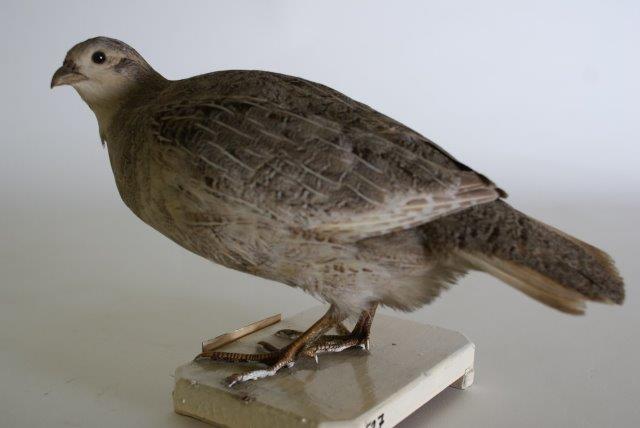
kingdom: Animalia
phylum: Chordata
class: Aves
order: Galliformes
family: Phasianidae
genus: Perdix
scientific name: Perdix perdix
